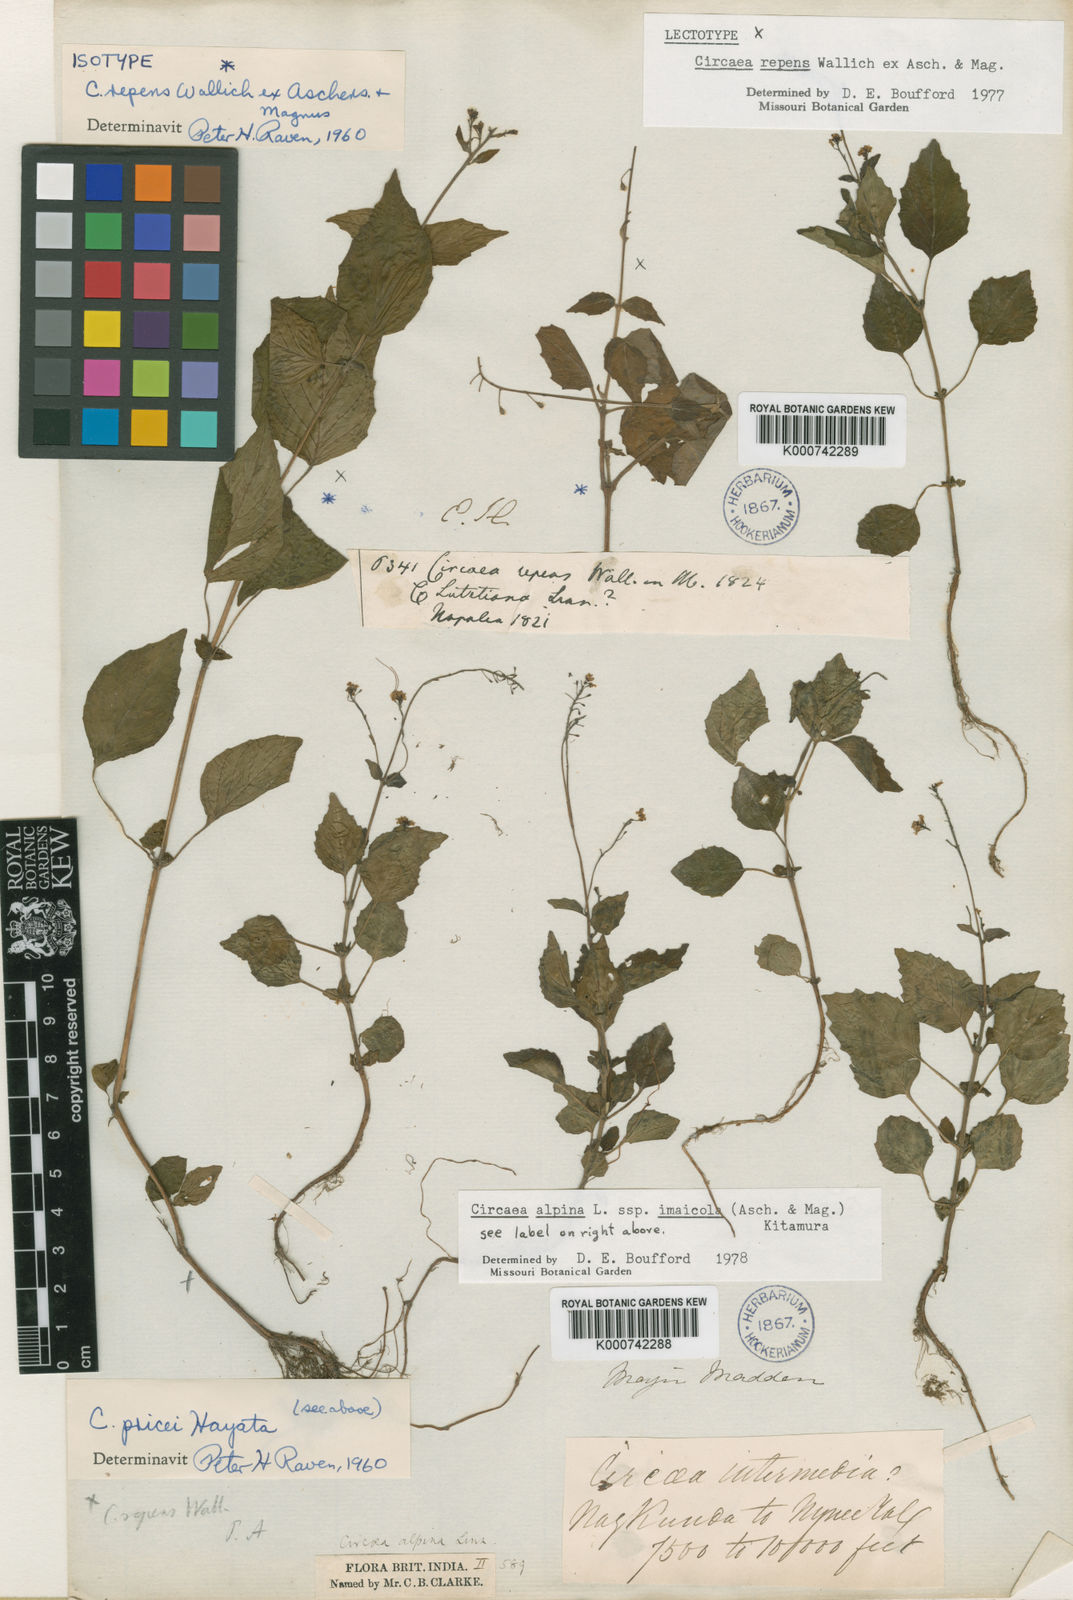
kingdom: Plantae
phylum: Tracheophyta
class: Magnoliopsida
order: Myrtales
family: Onagraceae
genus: Circaea
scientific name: Circaea
